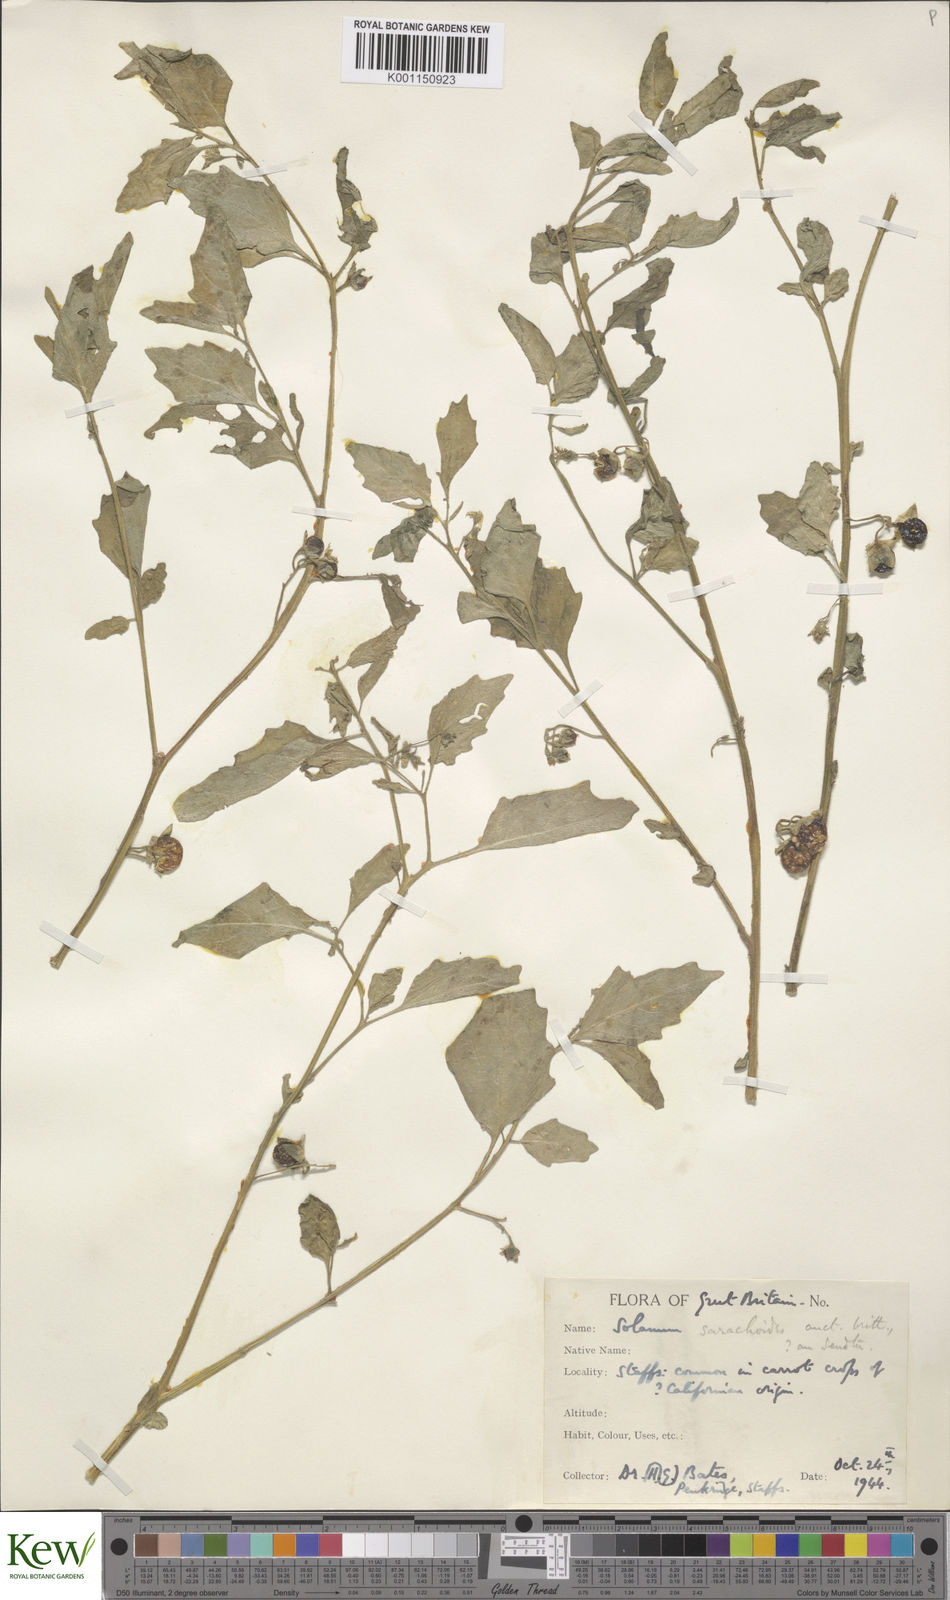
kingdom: Plantae
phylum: Tracheophyta
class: Magnoliopsida
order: Solanales
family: Solanaceae
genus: Solanum
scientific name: Solanum nitidibaccatum
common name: Hairy nightshade
